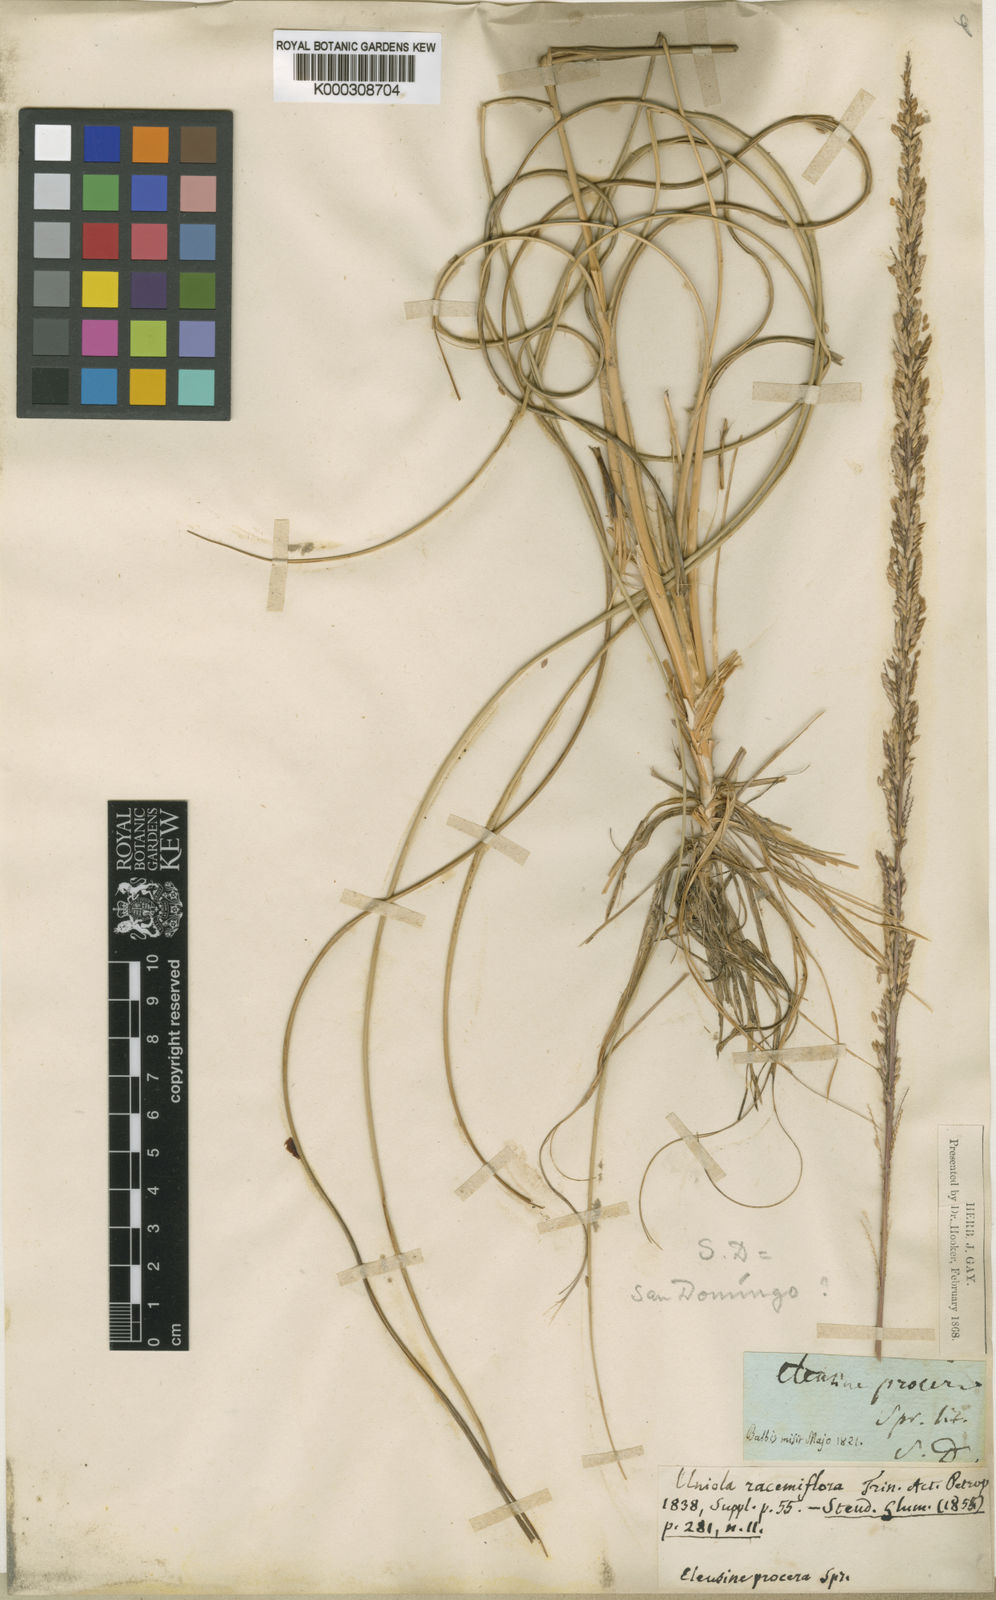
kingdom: Plantae
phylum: Tracheophyta
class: Liliopsida
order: Poales
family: Poaceae
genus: Uniola
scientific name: Uniola virgata
